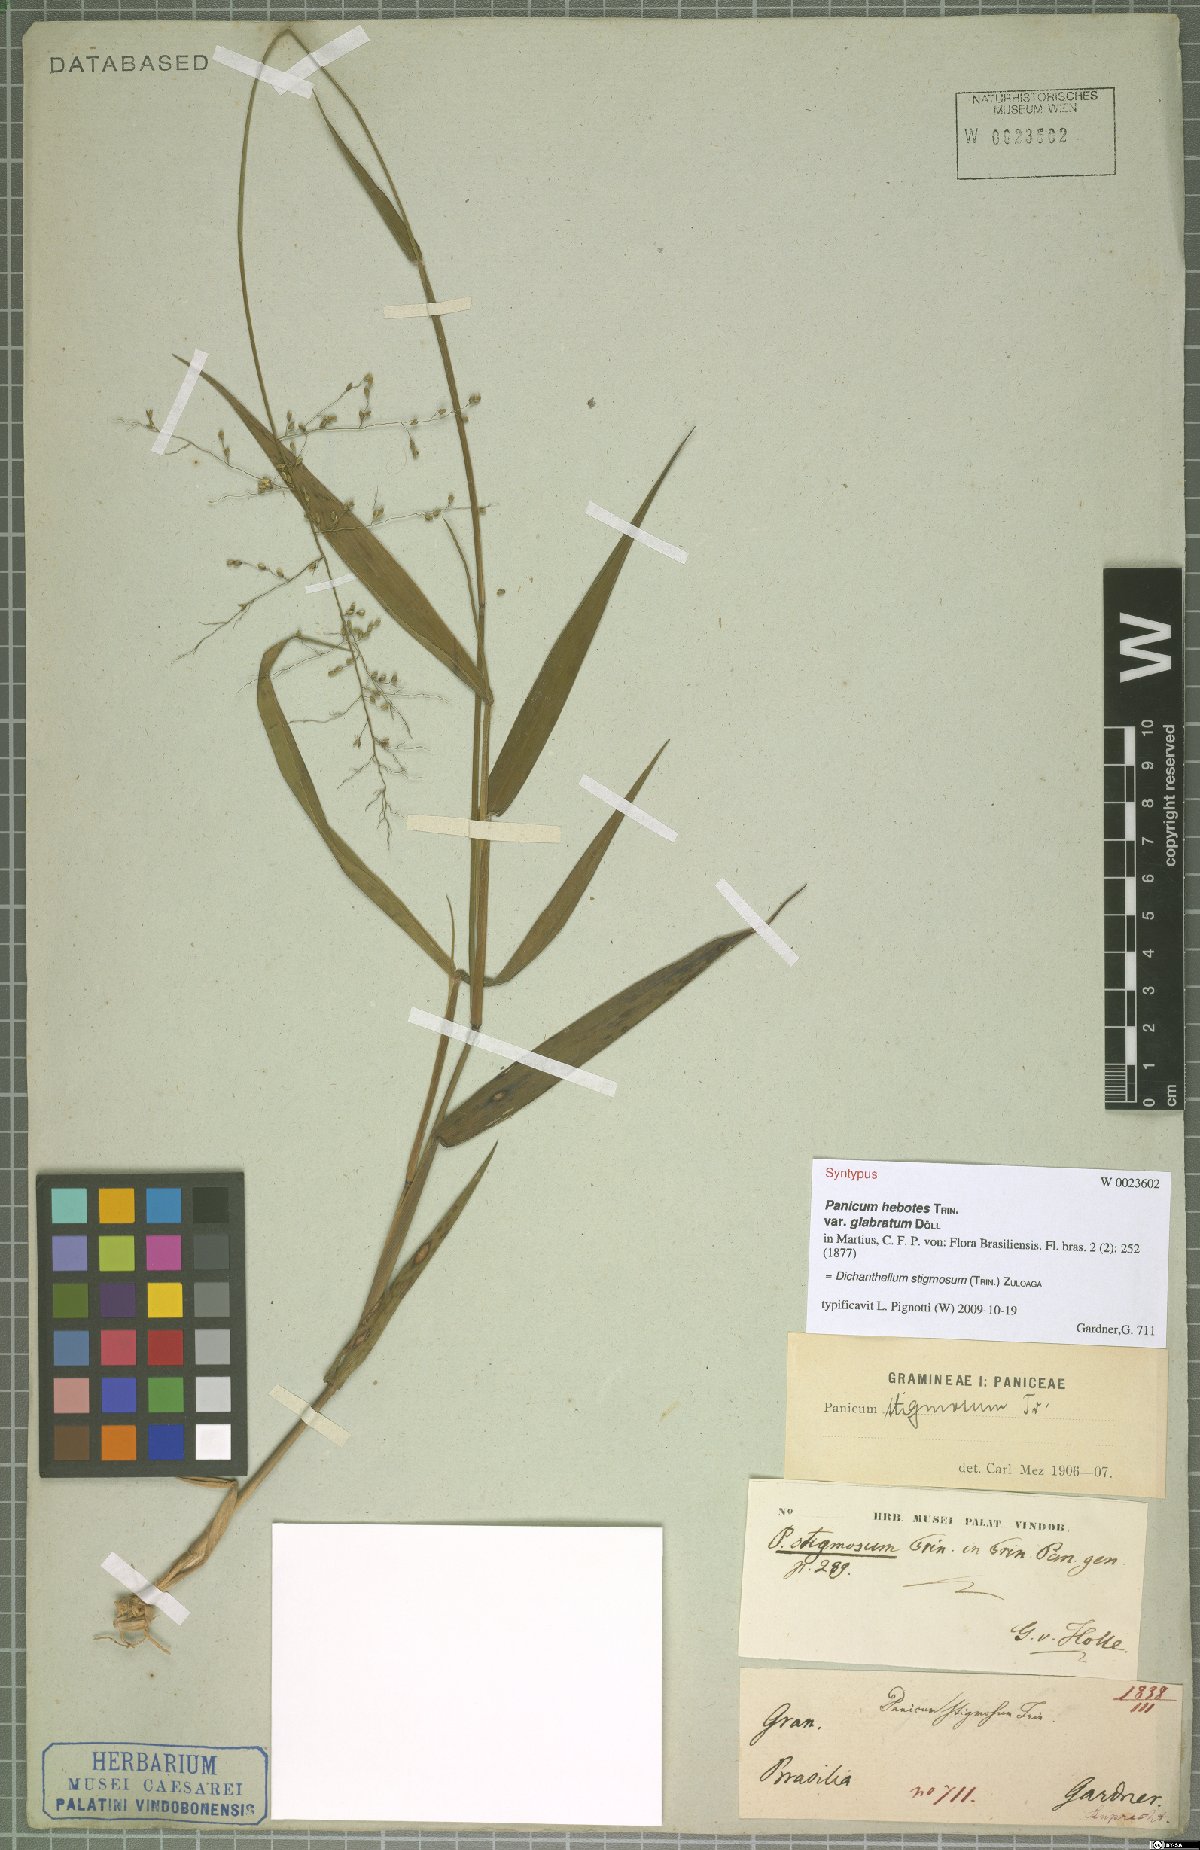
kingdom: Plantae
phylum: Tracheophyta
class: Liliopsida
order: Poales
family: Poaceae
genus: Dichanthelium
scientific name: Dichanthelium stigmosum
